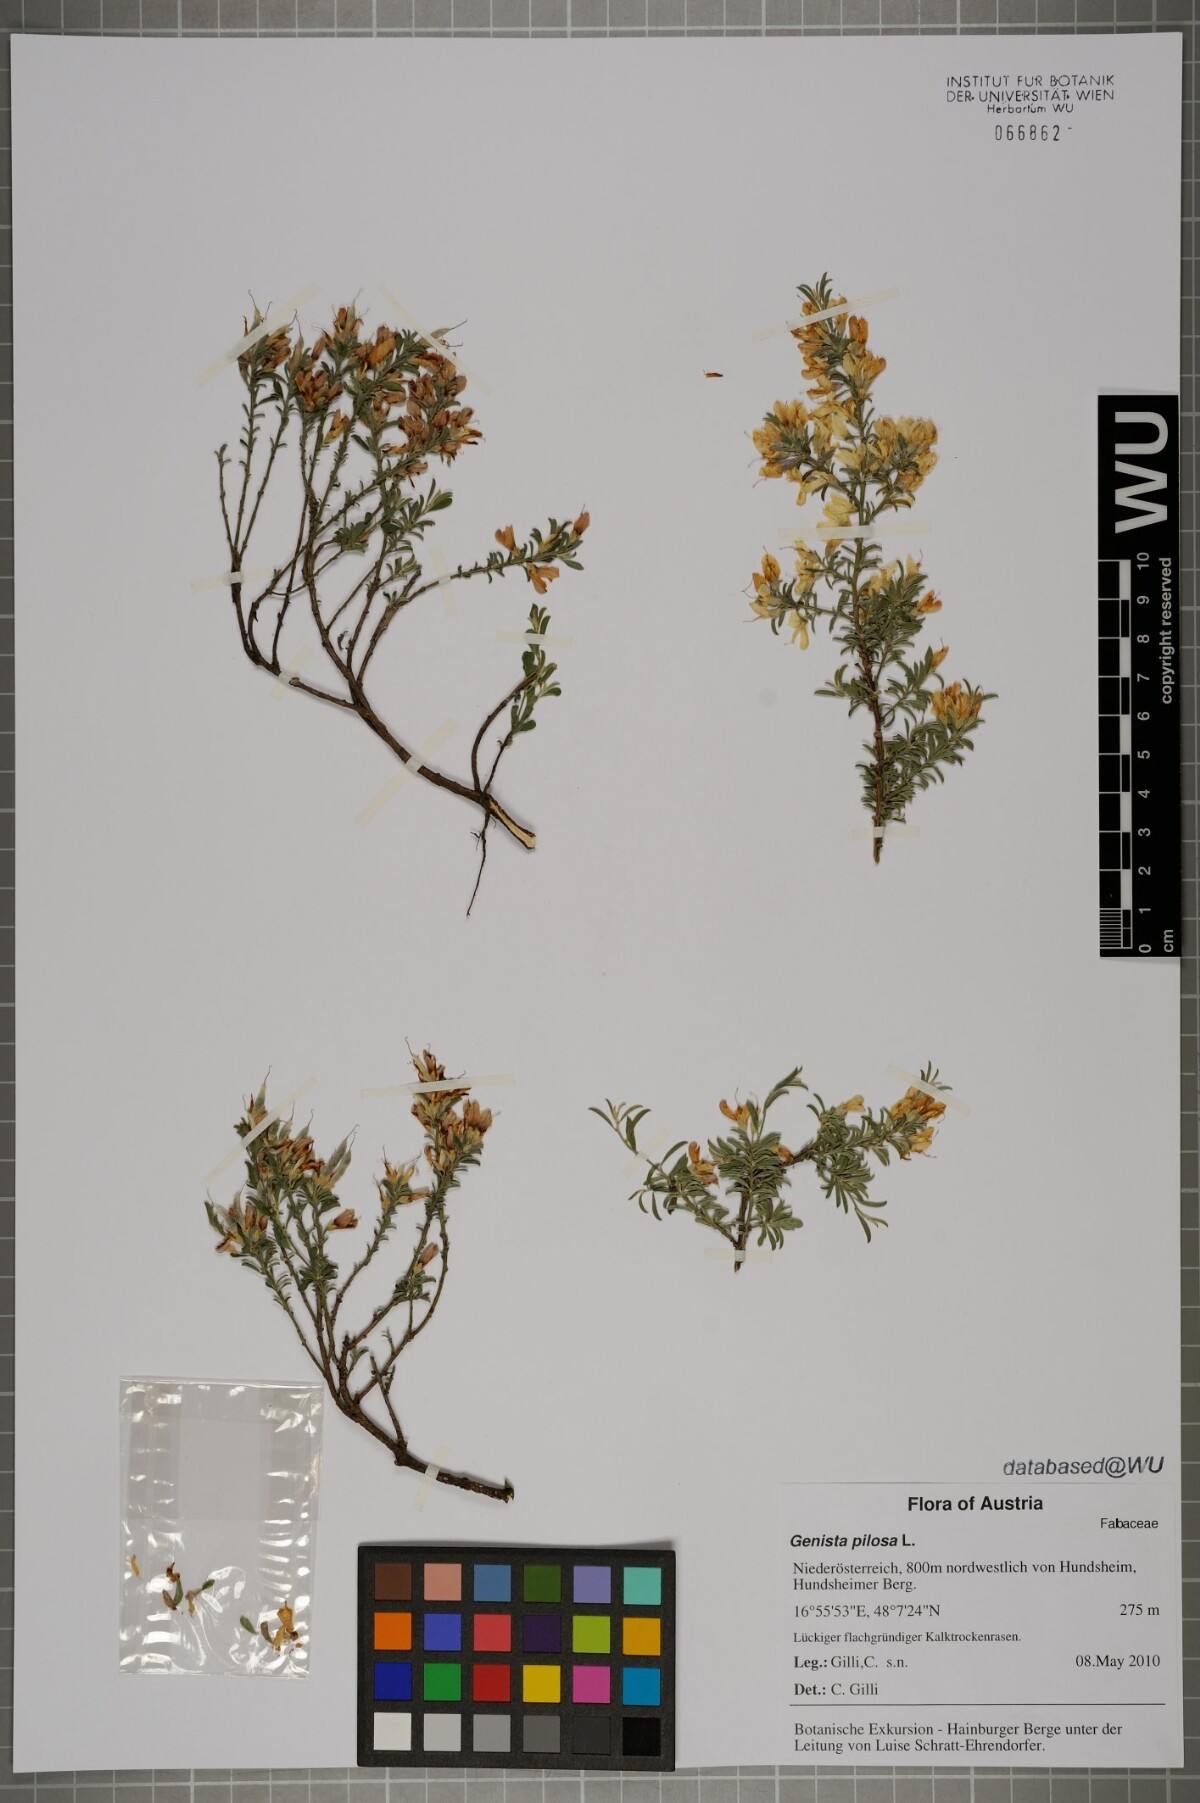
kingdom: Plantae
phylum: Tracheophyta
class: Magnoliopsida
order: Fabales
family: Fabaceae
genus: Genista
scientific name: Genista pilosa
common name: Hairy greenweed
